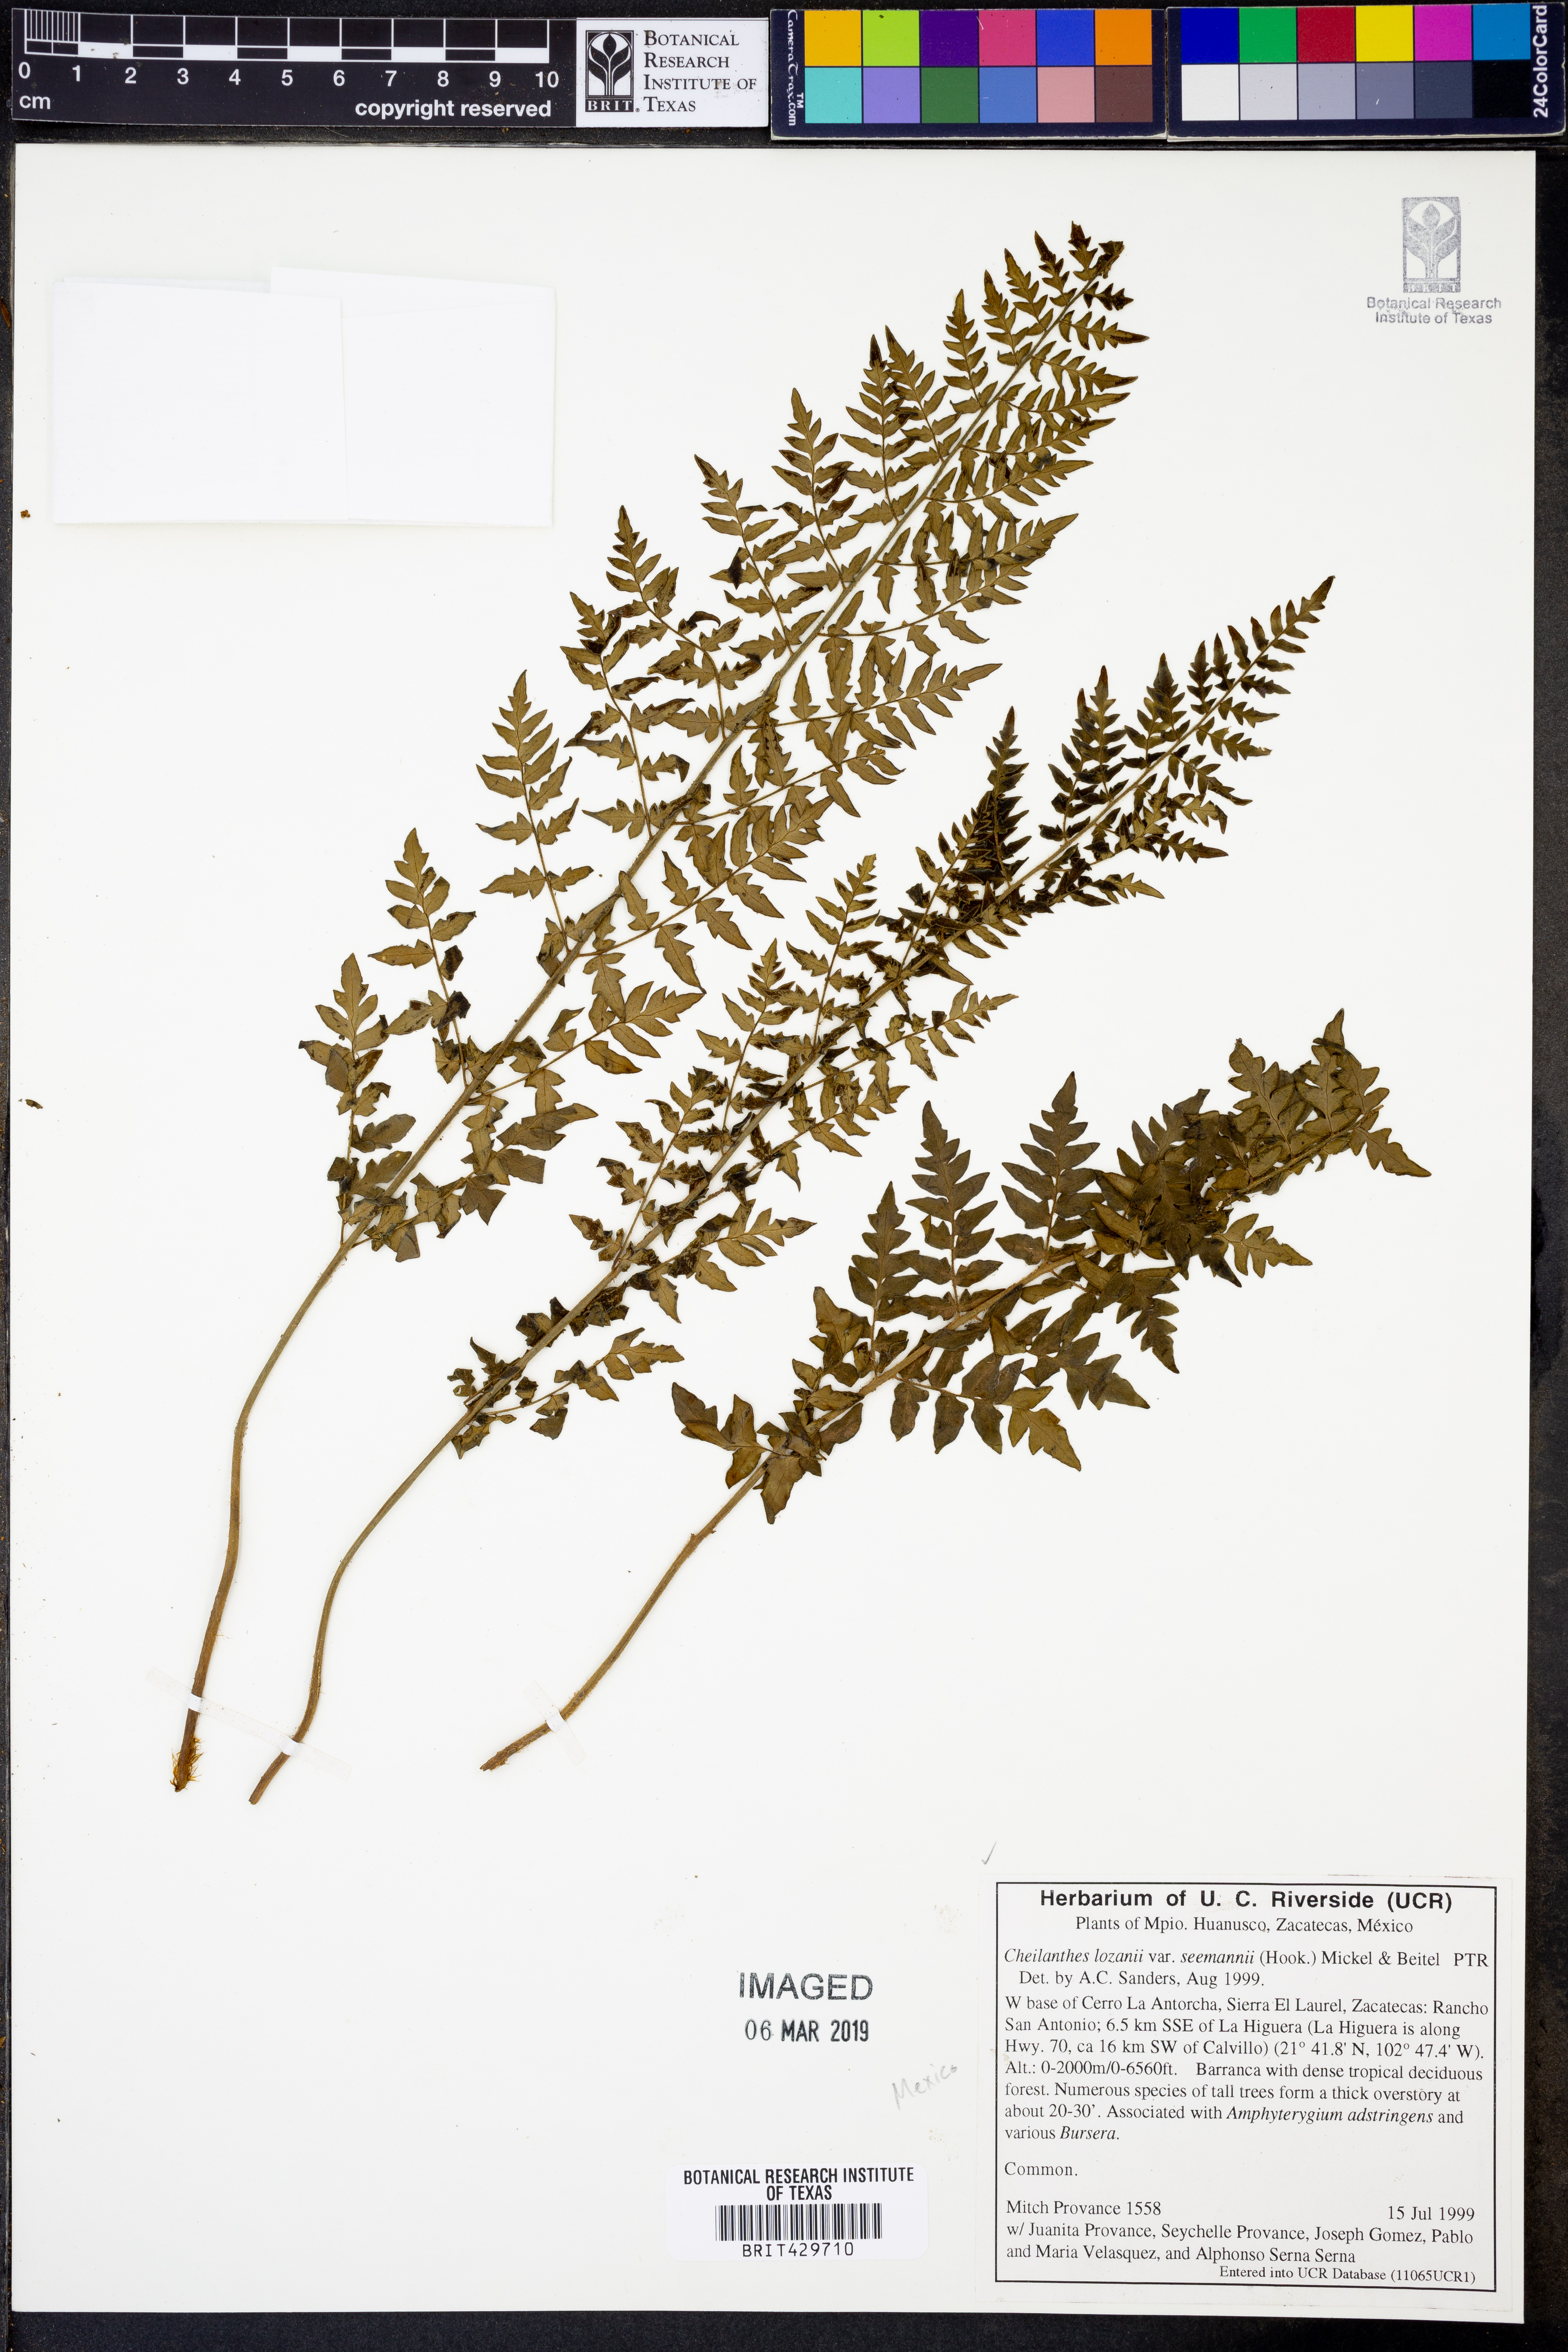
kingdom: Plantae
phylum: Tracheophyta
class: Polypodiopsida
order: Polypodiales
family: Pteridaceae
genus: Cheilanthes
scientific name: Cheilanthes lozanoi
